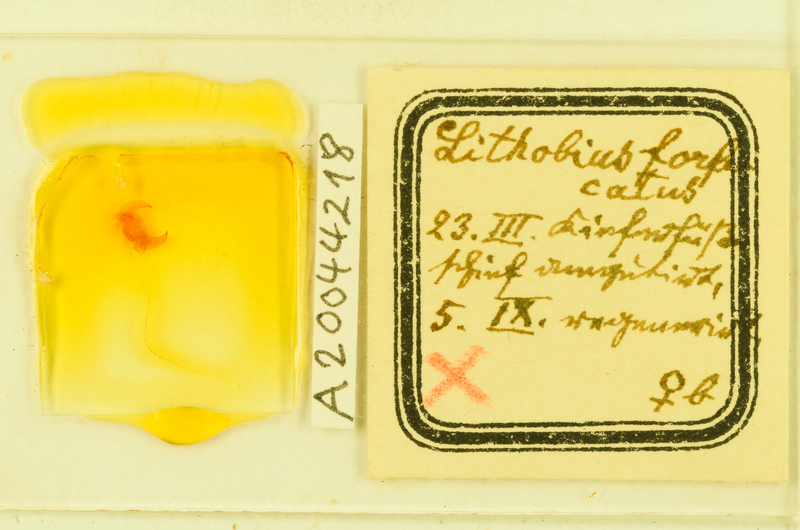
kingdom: Animalia
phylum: Arthropoda
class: Chilopoda
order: Lithobiomorpha
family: Lithobiidae
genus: Lithobius
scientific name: Lithobius forficatus
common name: Centipede
